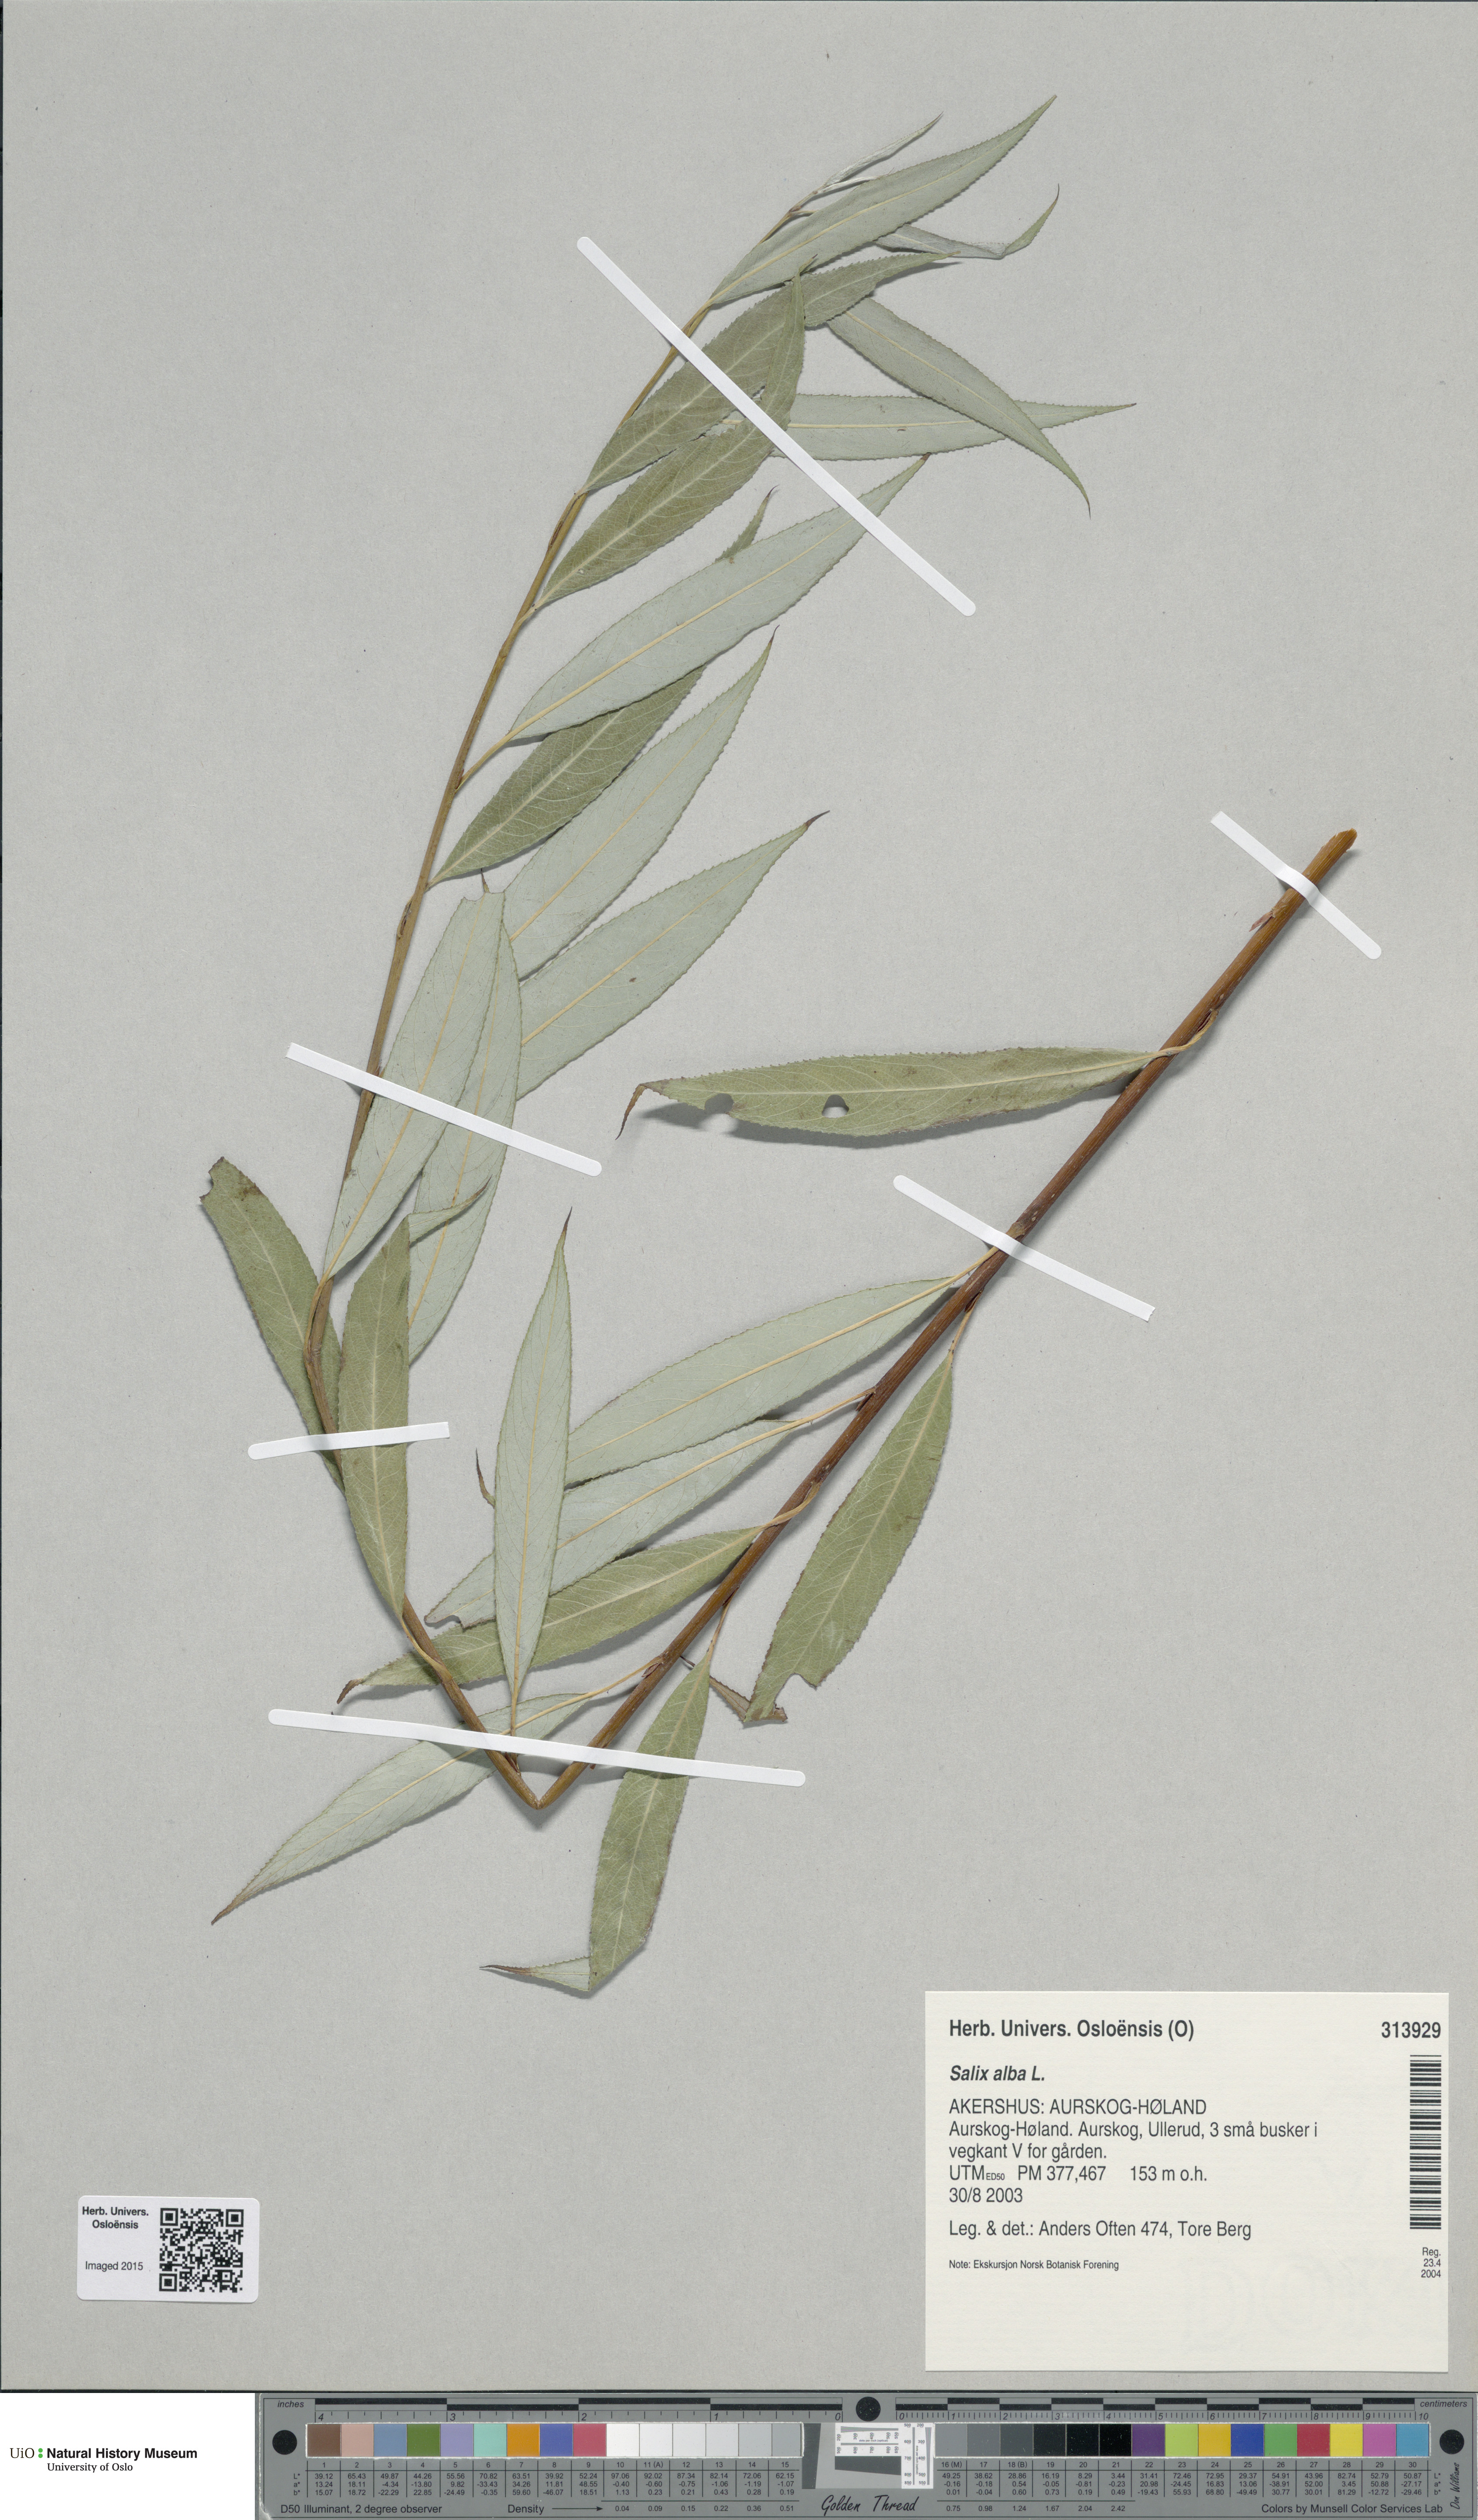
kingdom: Plantae
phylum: Tracheophyta
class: Magnoliopsida
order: Malpighiales
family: Salicaceae
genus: Salix
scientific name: Salix alba
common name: White willow
